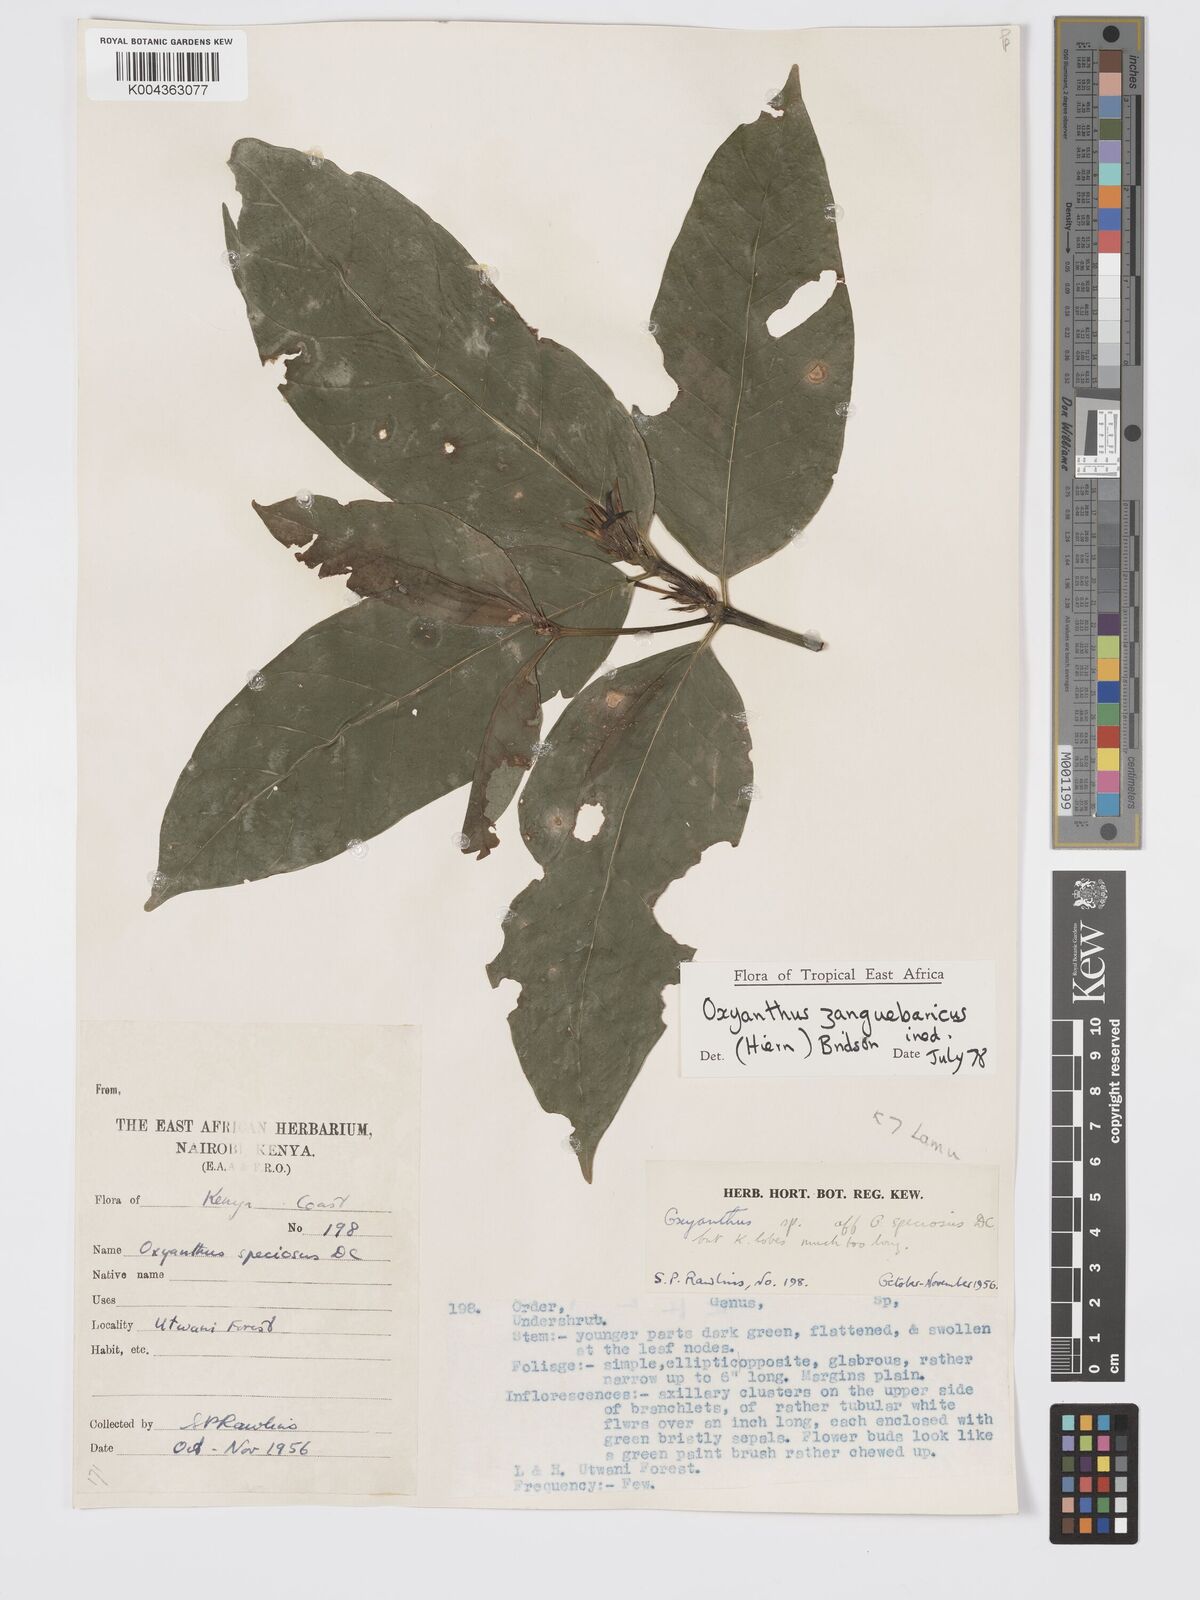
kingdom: Plantae
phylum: Tracheophyta
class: Magnoliopsida
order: Gentianales
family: Rubiaceae
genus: Oxyanthus
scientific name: Oxyanthus zanguebaricus
